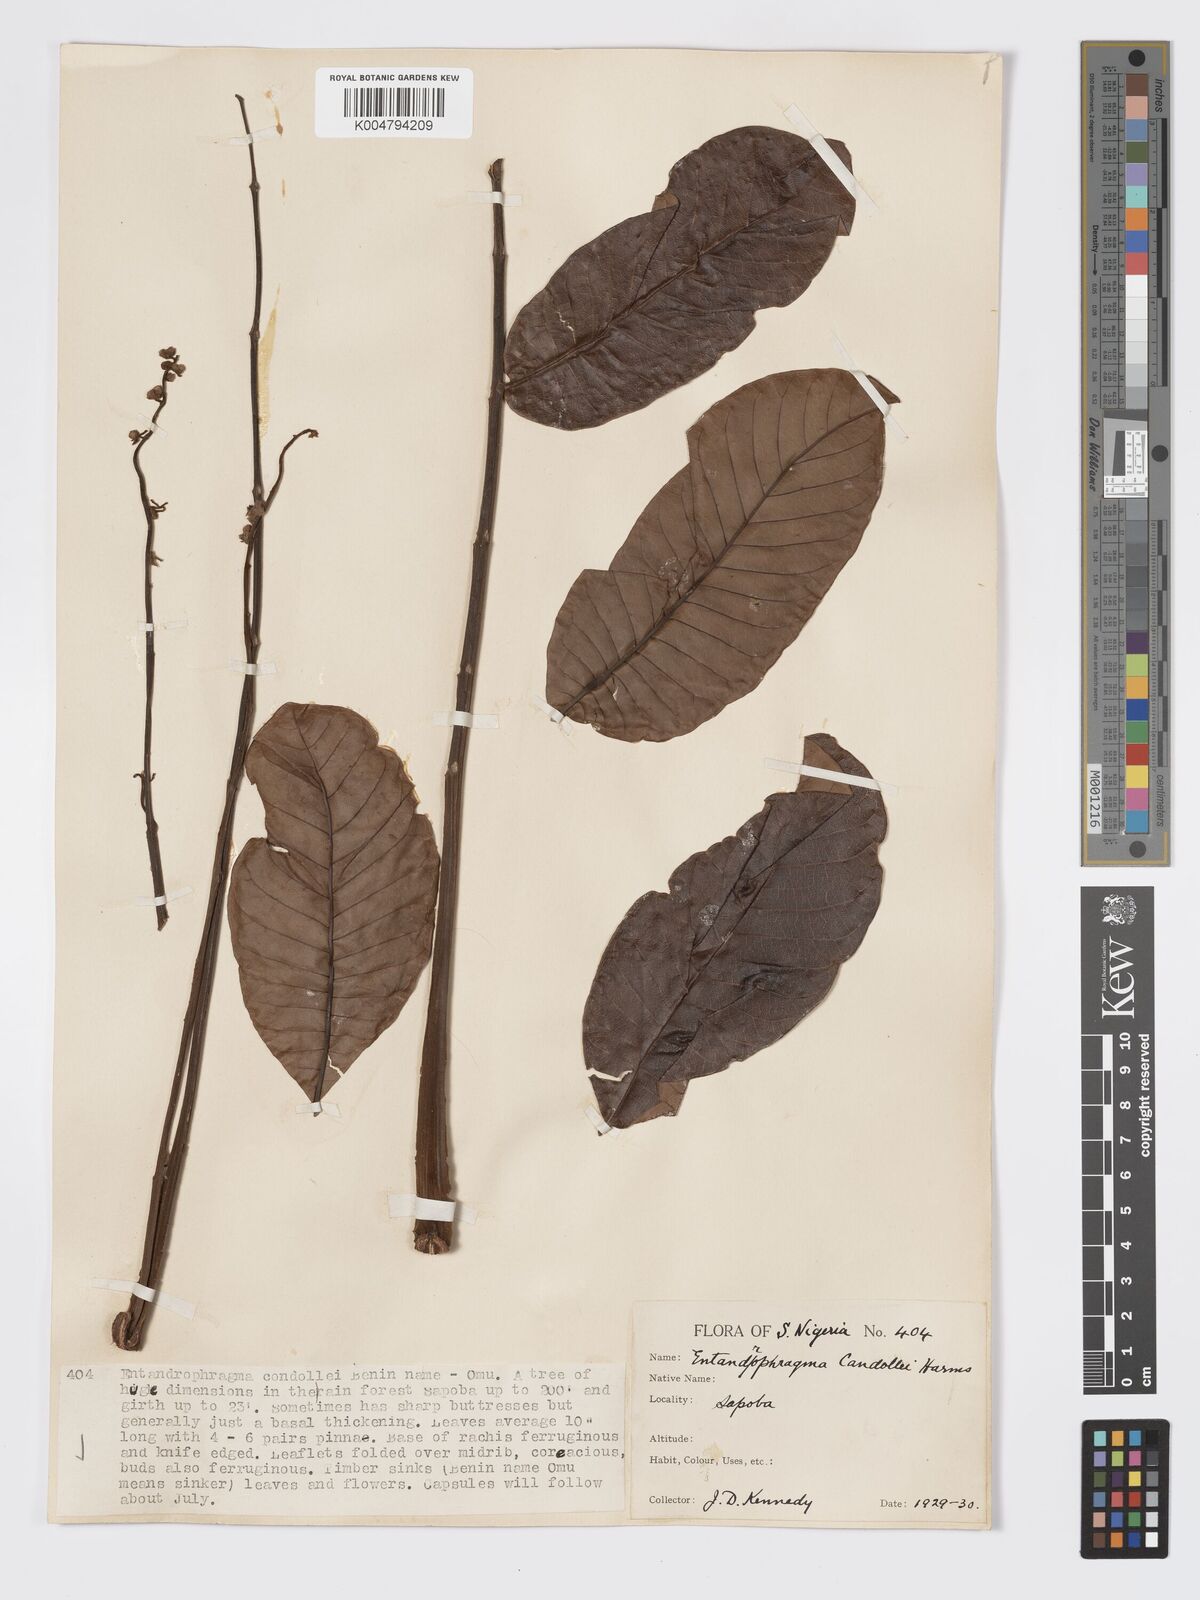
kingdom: Plantae
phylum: Tracheophyta
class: Magnoliopsida
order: Sapindales
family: Meliaceae
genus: Entandrophragma
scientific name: Entandrophragma candollei
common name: Cedar kokoti
